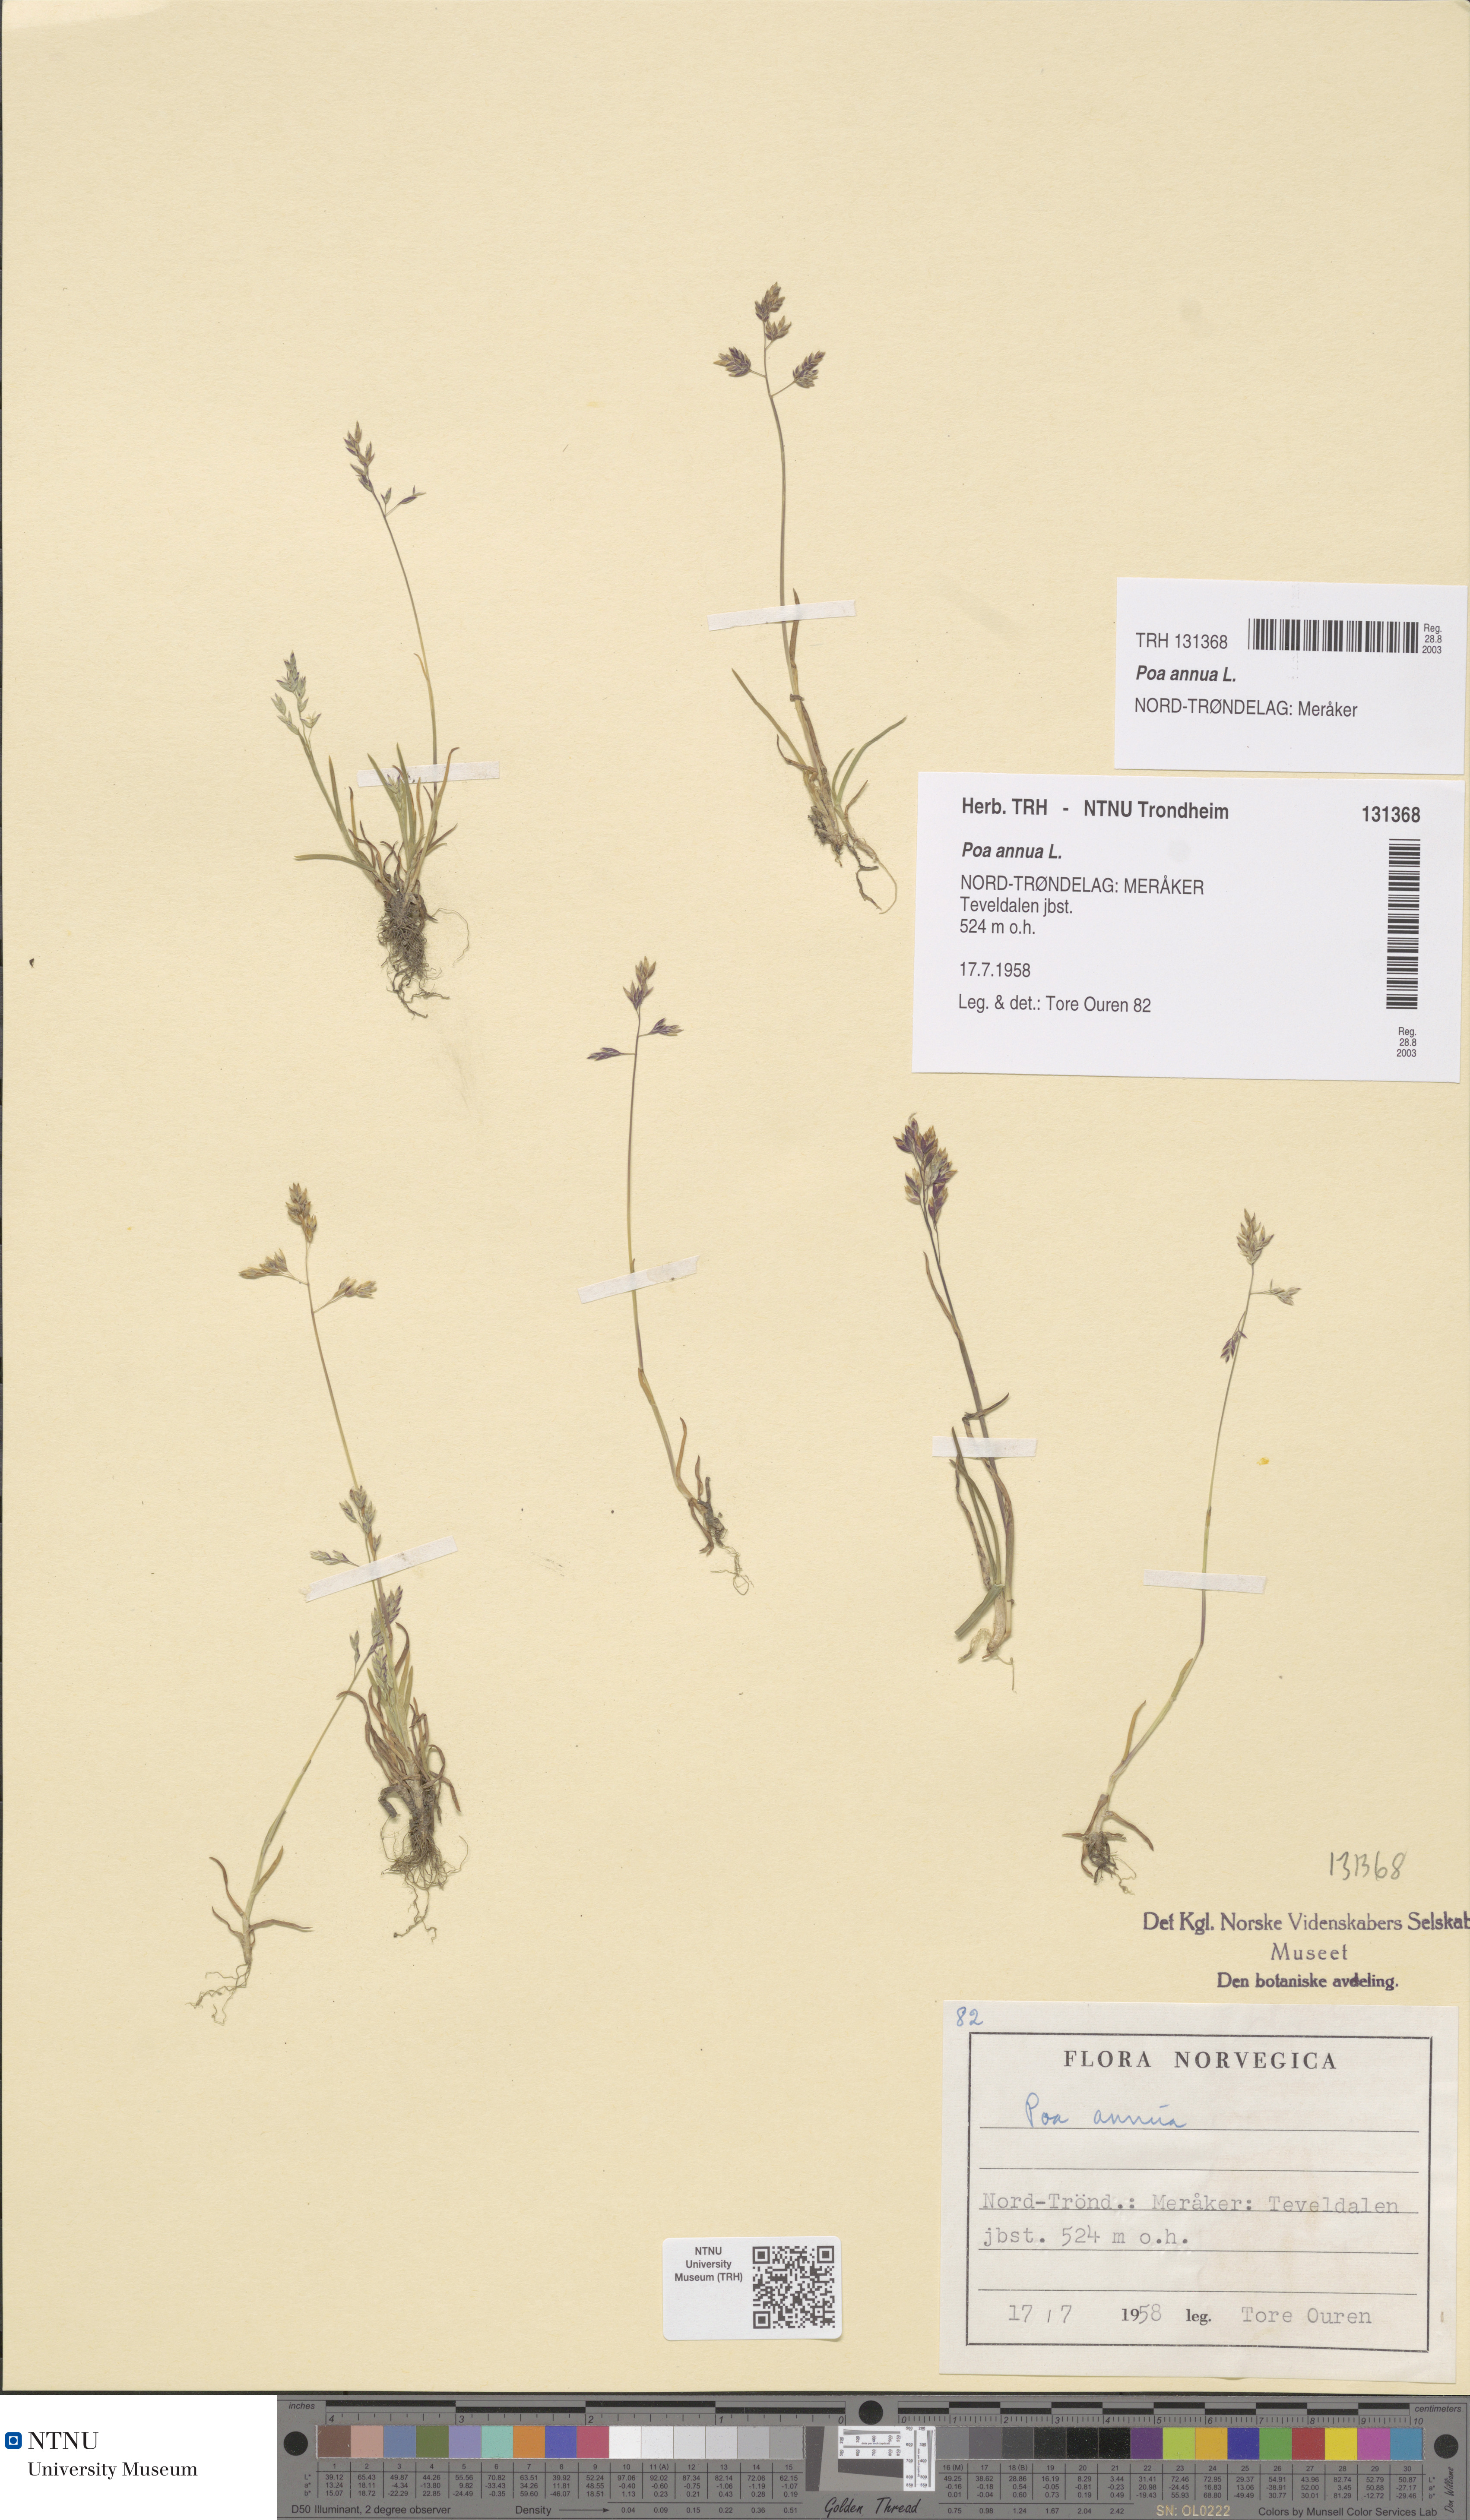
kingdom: Plantae
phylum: Tracheophyta
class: Liliopsida
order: Poales
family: Poaceae
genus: Poa
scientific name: Poa annua
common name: Annual bluegrass
